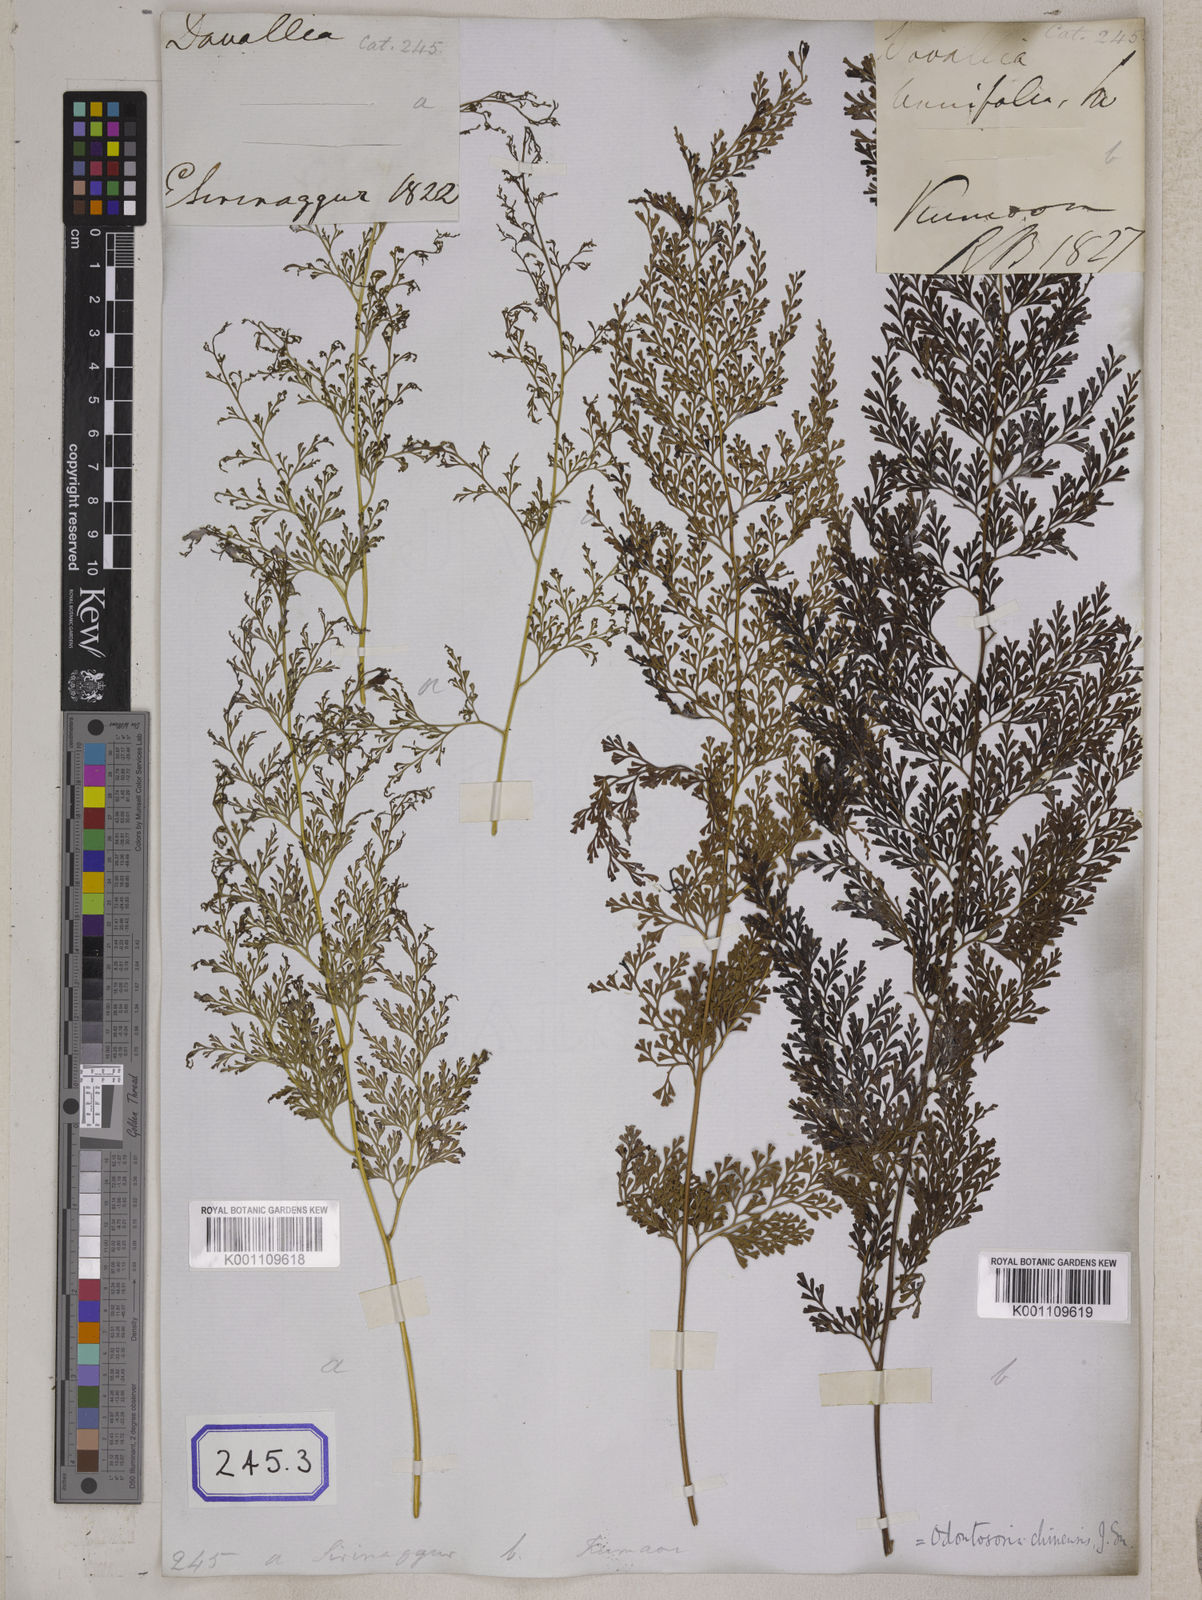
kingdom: Plantae
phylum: Tracheophyta
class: Polypodiopsida
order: Polypodiales
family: Lindsaeaceae
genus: Odontosoria
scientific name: Odontosoria chinensis
